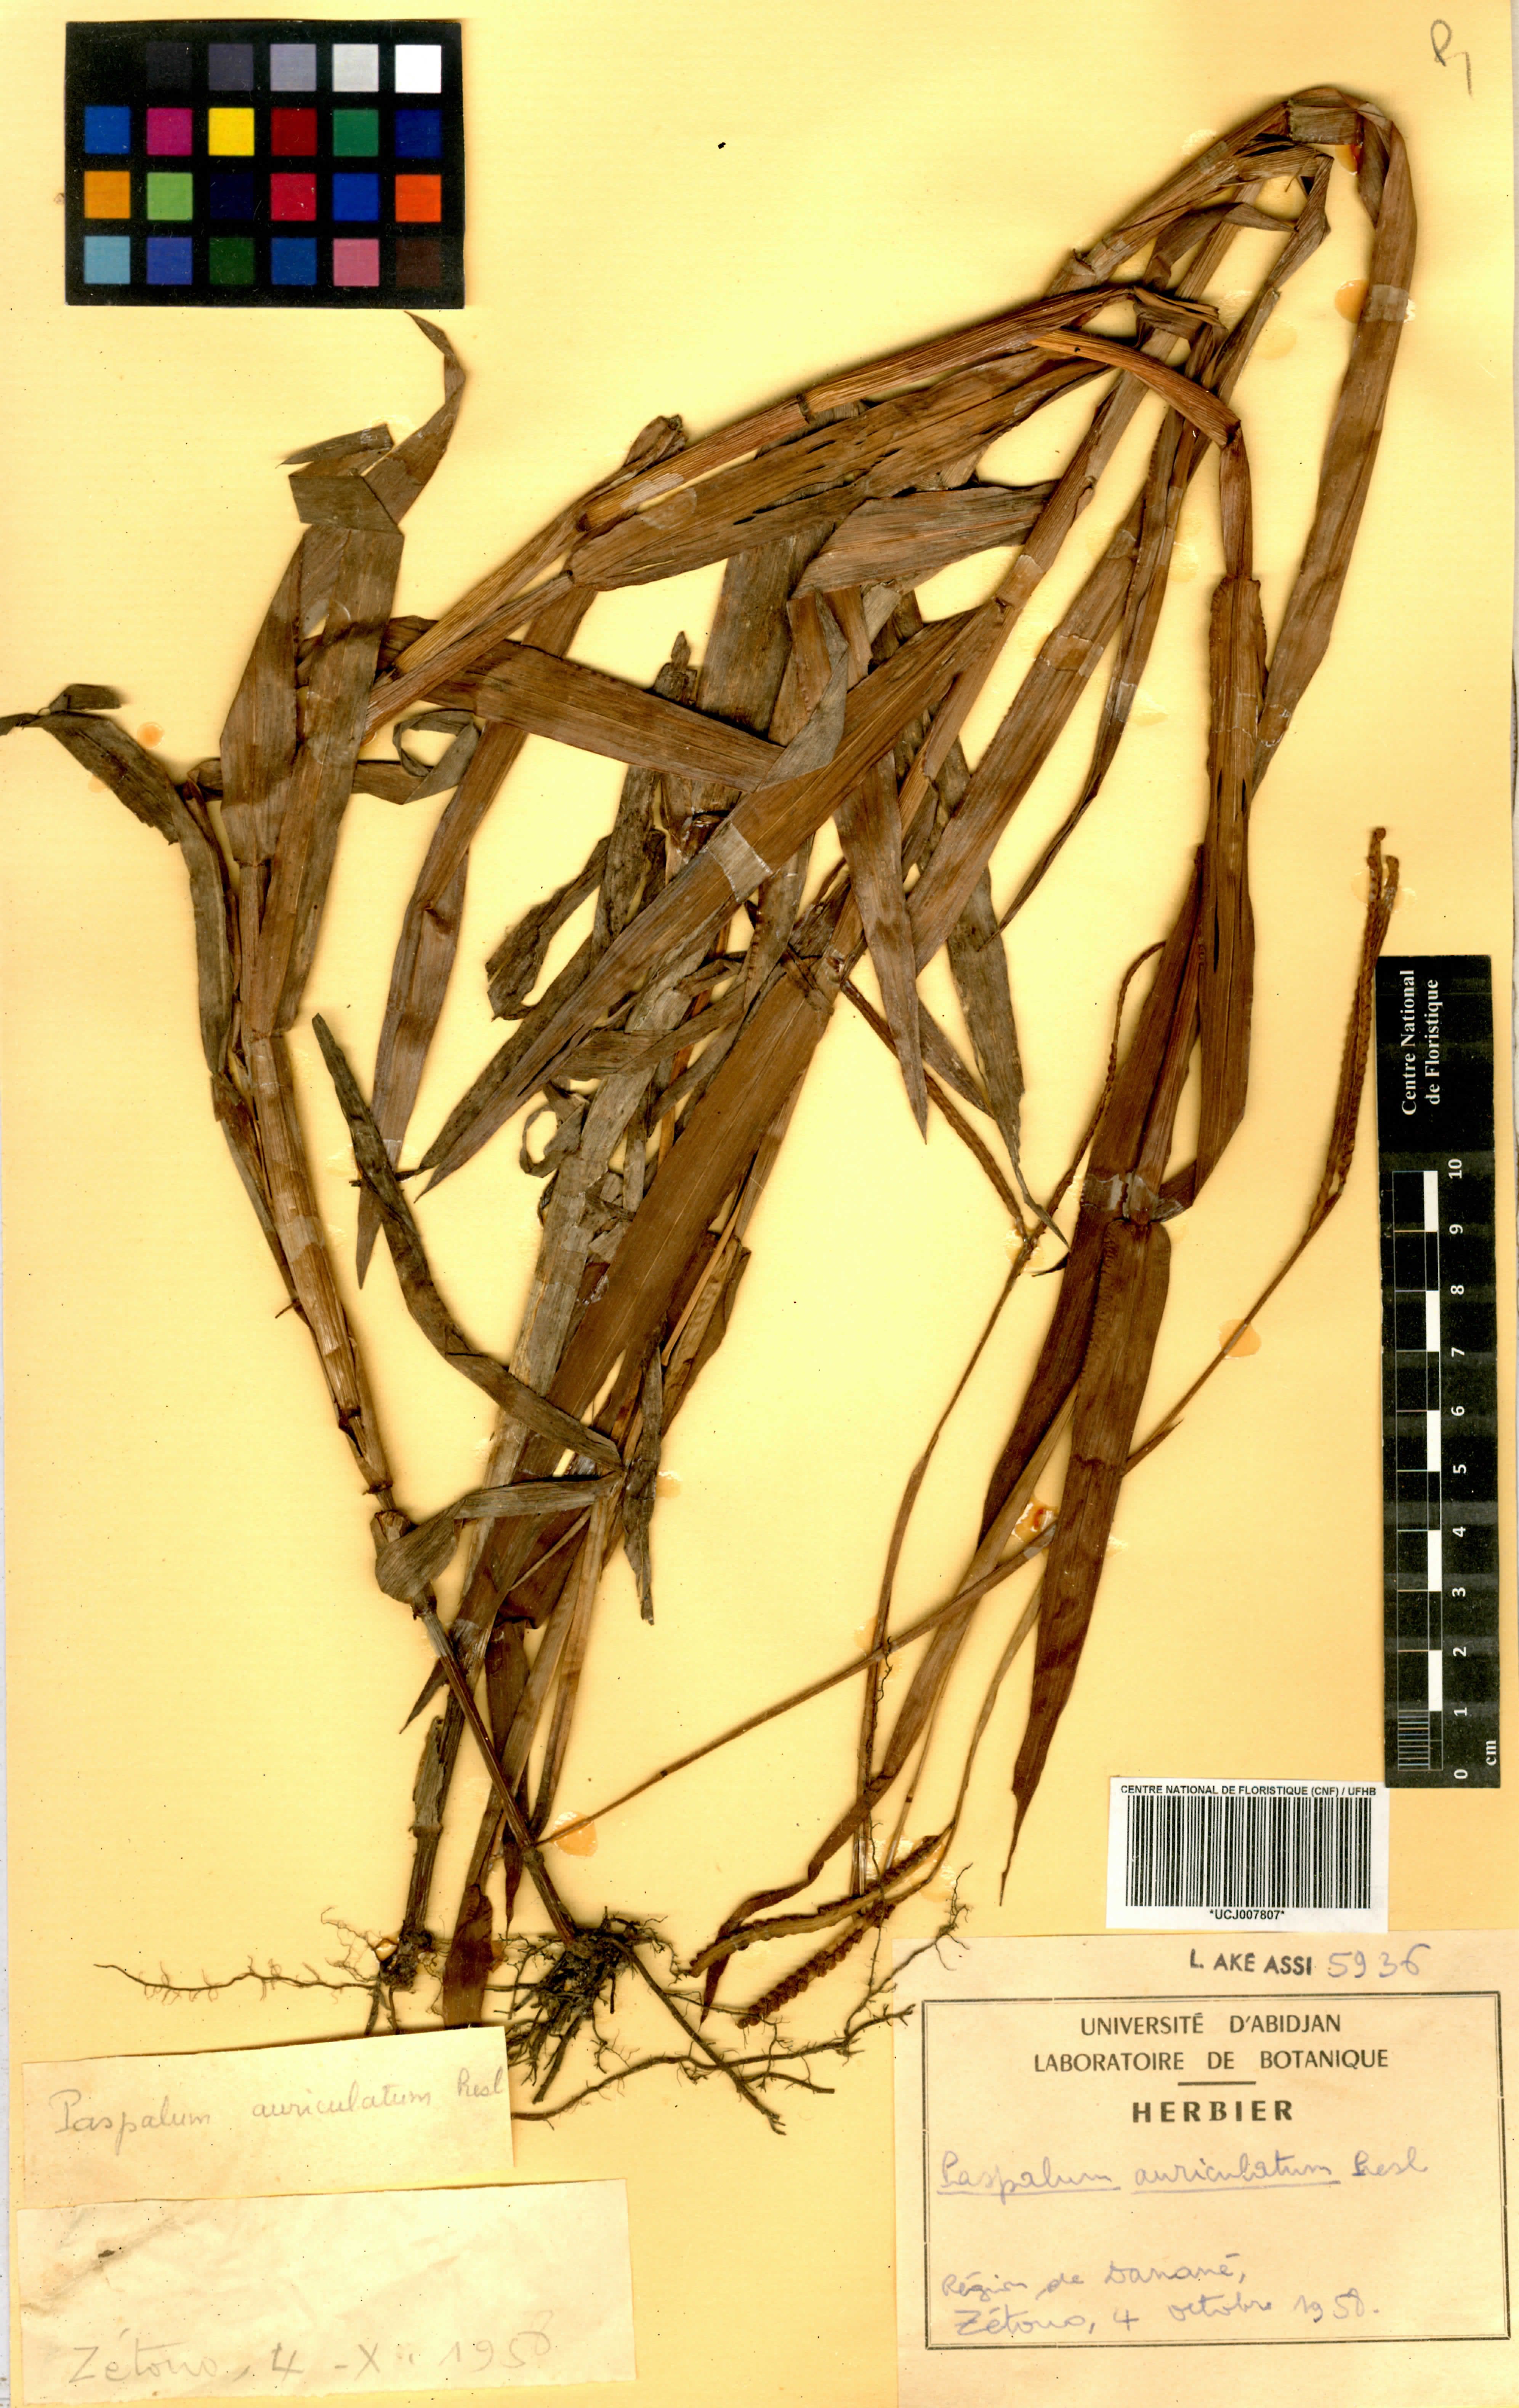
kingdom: Plantae
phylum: Tracheophyta
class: Liliopsida
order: Poales
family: Poaceae
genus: Paspalum
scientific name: Paspalum scrobiculatum
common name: Kodo millet
